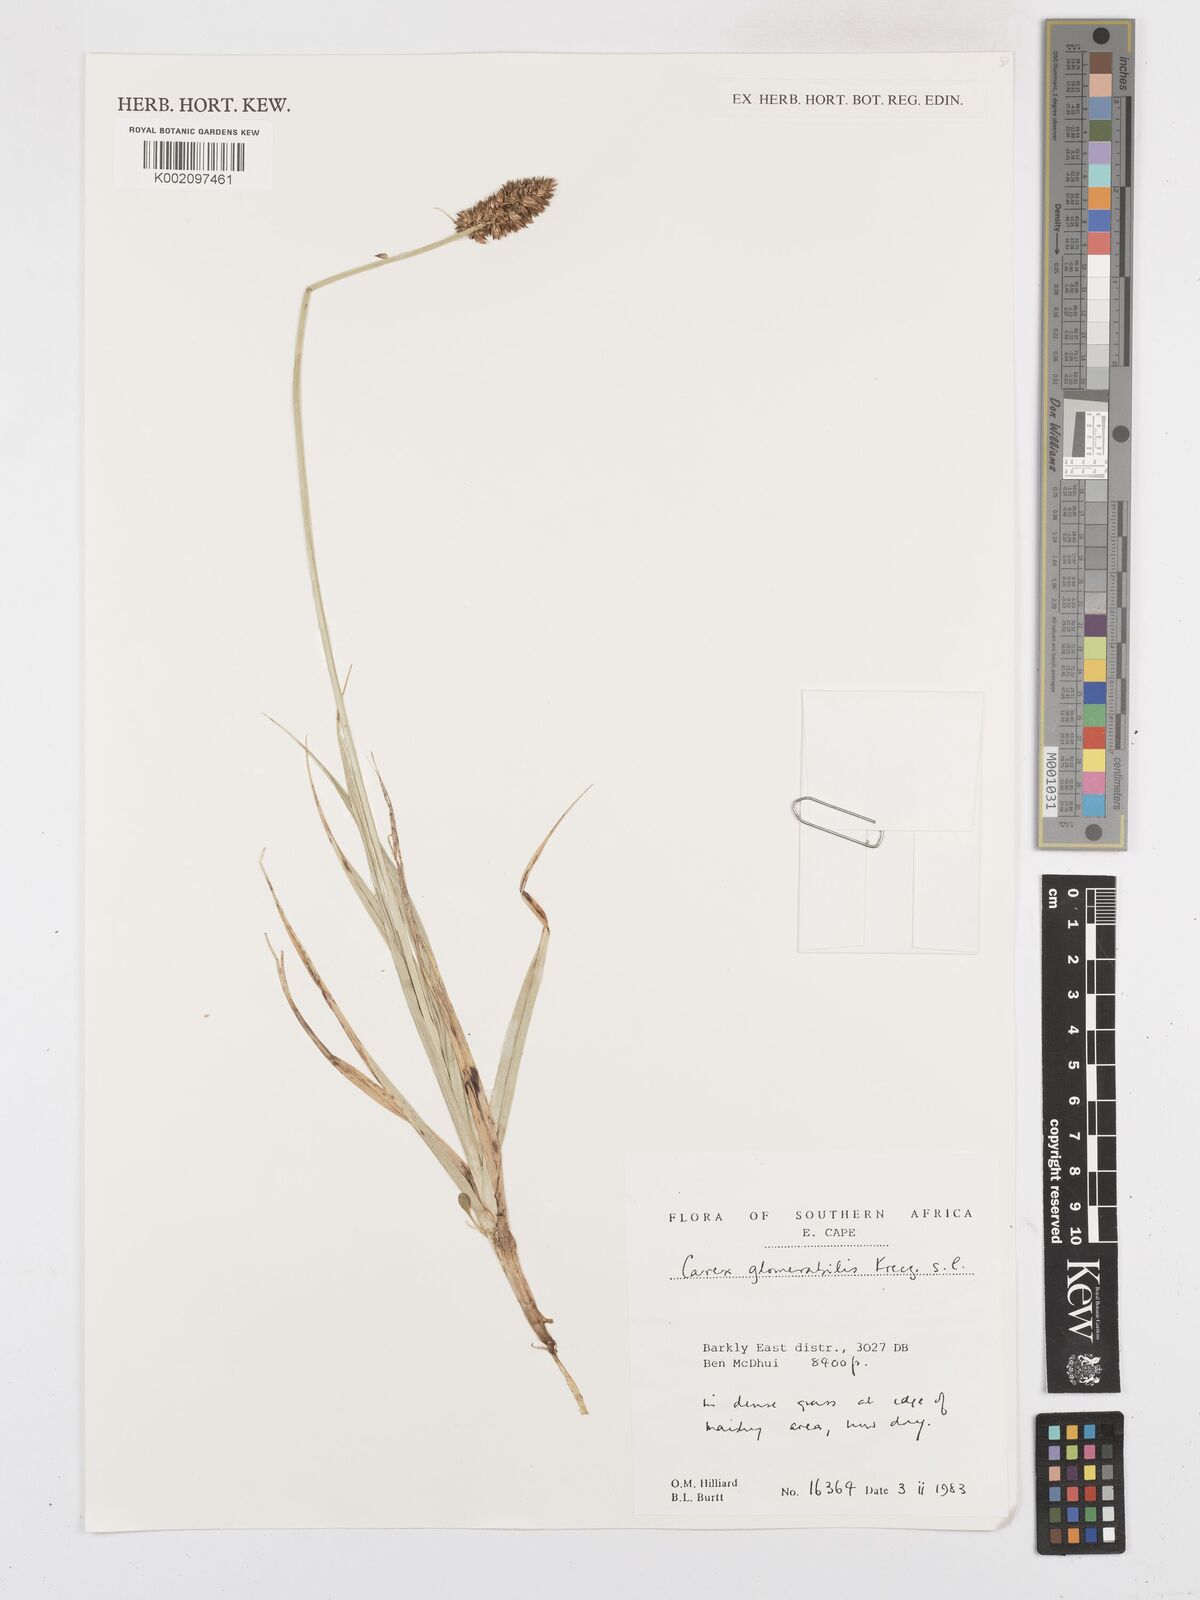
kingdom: Plantae
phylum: Tracheophyta
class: Liliopsida
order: Poales
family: Cyperaceae
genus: Carex
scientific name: Carex glomerata
